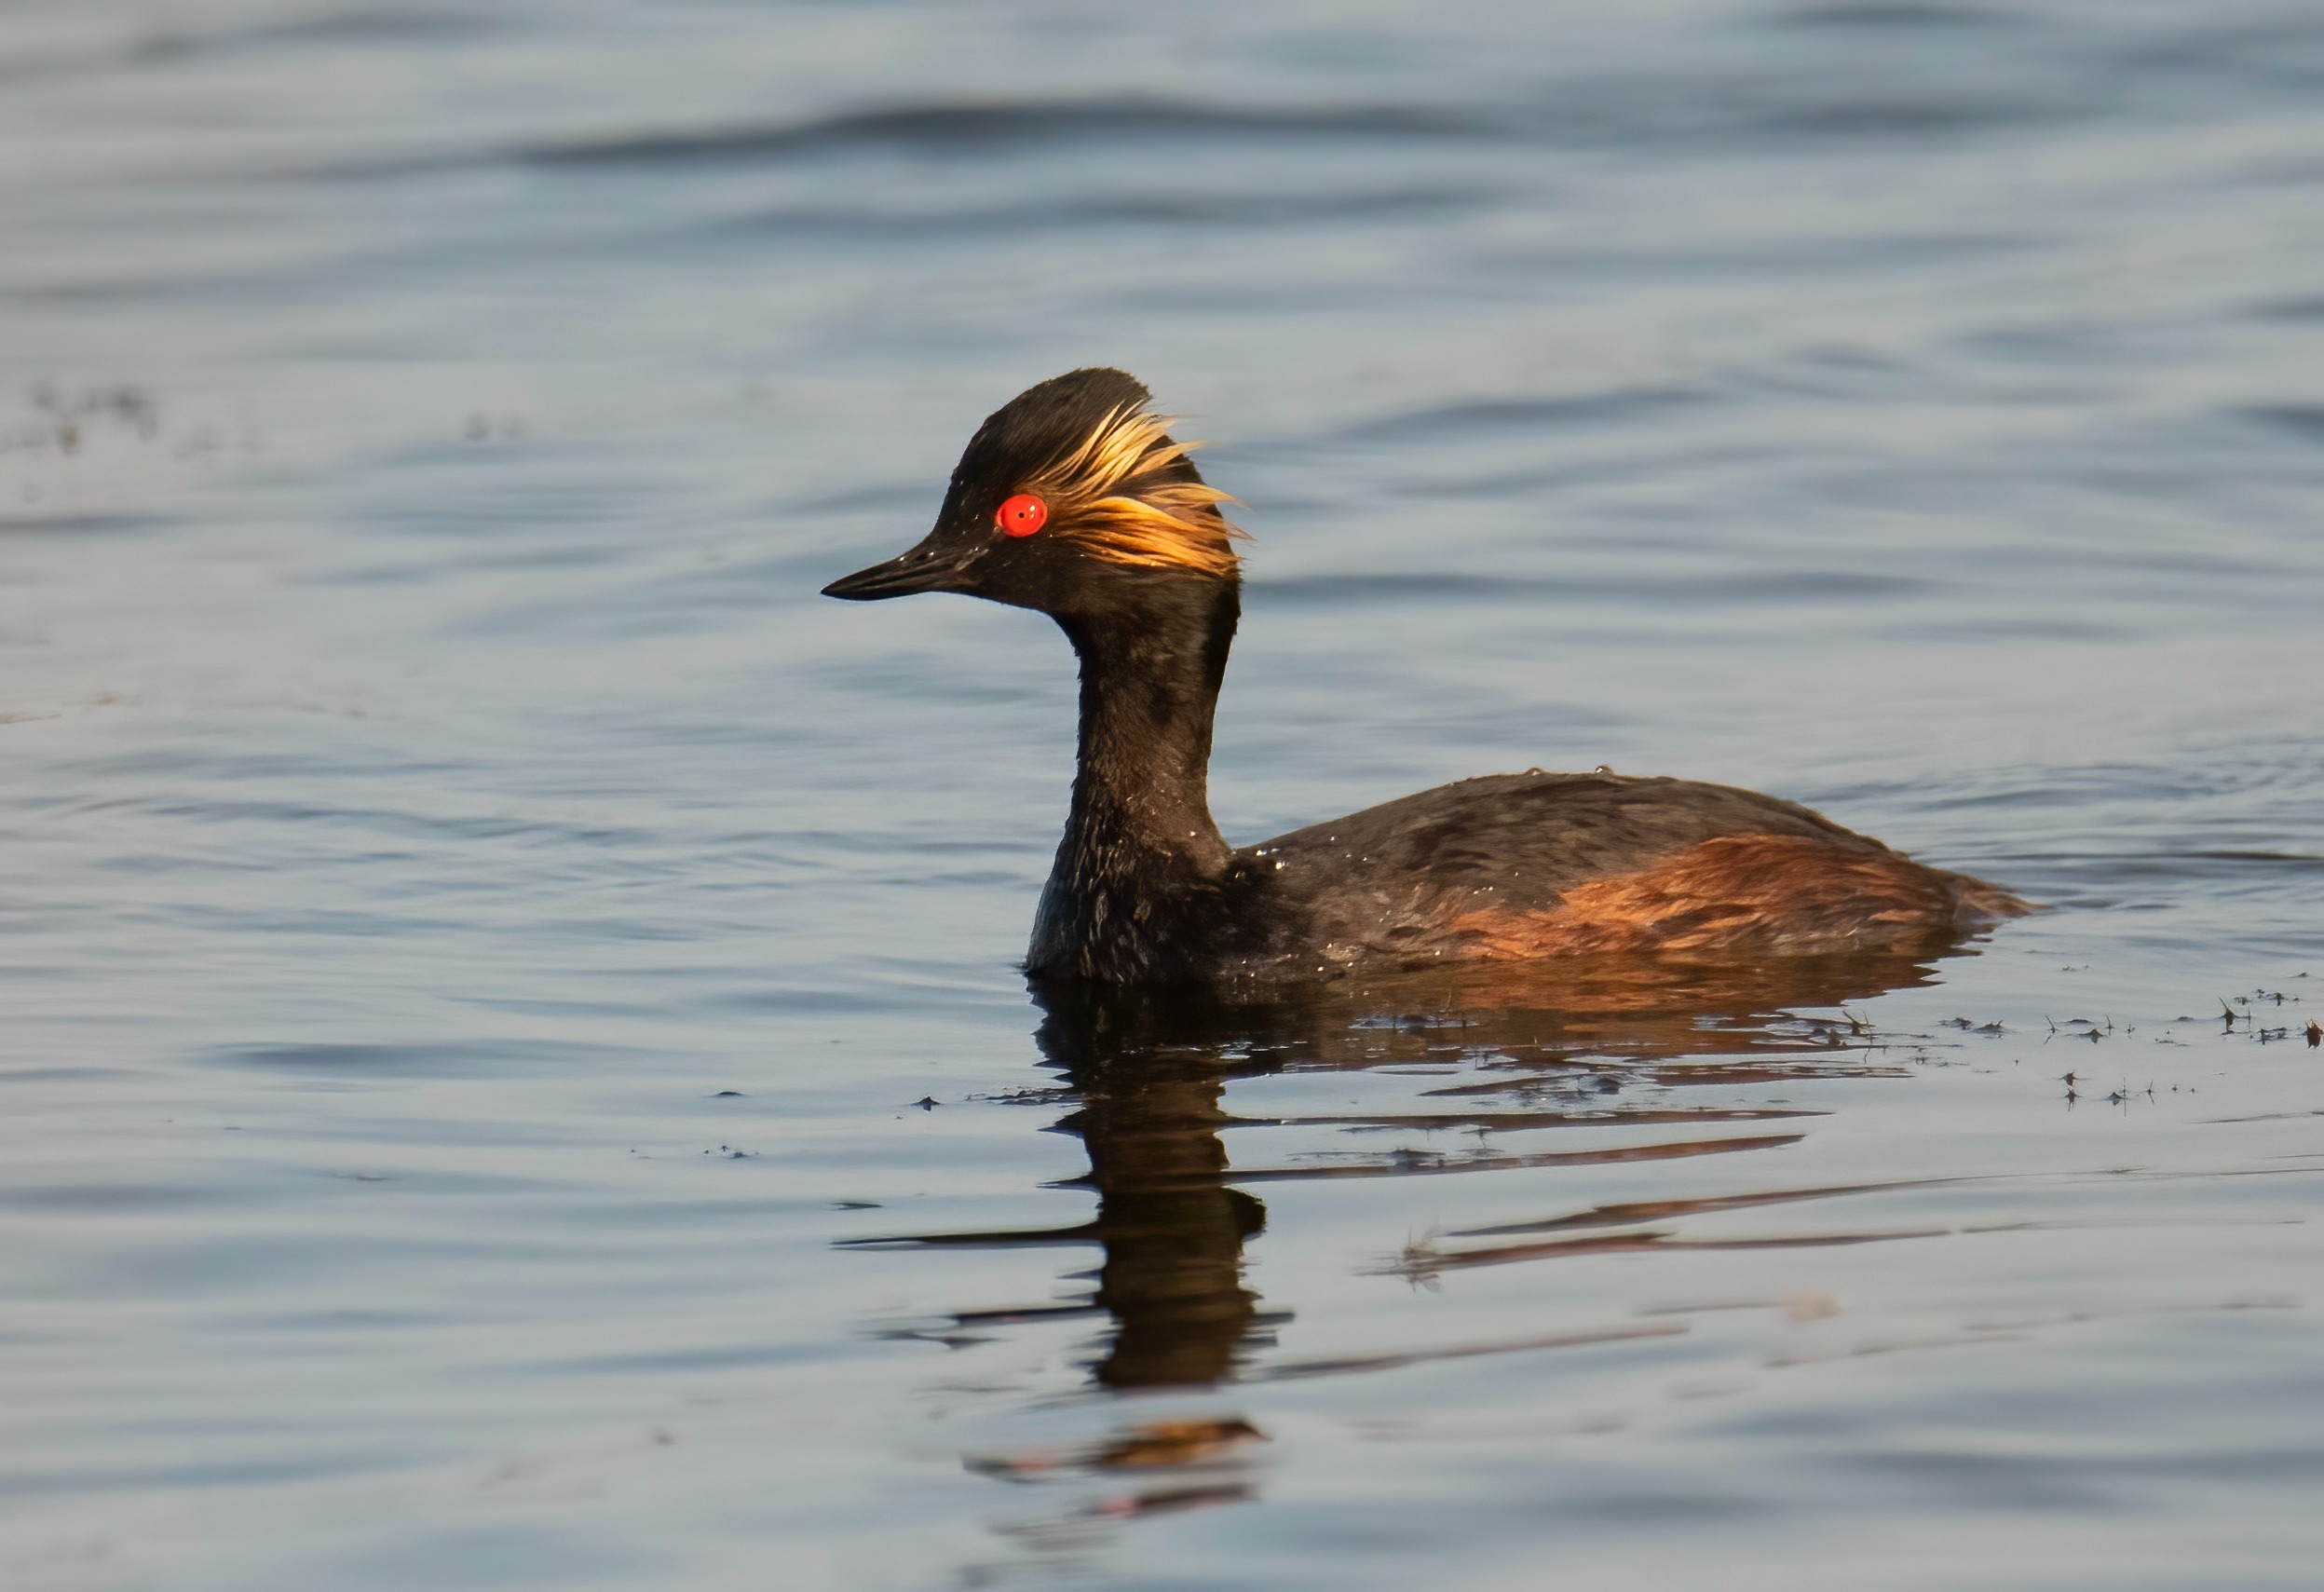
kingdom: Animalia
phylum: Chordata
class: Aves
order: Podicipediformes
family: Podicipedidae
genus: Podiceps
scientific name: Podiceps nigricollis
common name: Sorthalset lappedykker
